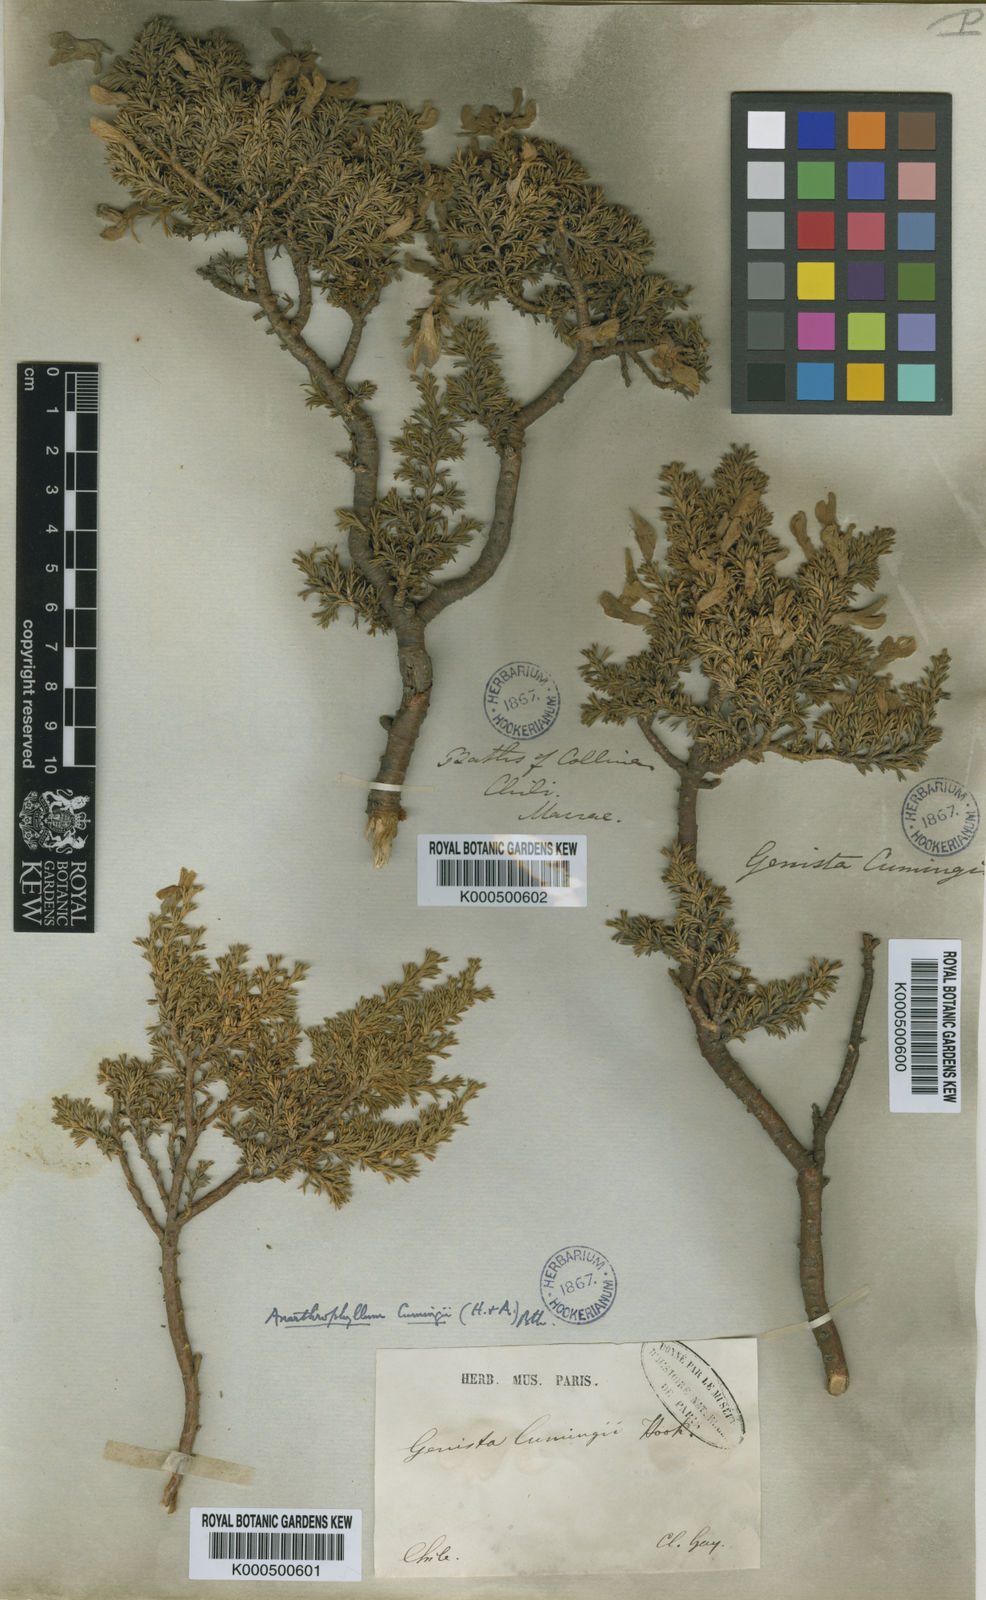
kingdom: Plantae
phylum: Tracheophyta
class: Magnoliopsida
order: Fabales
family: Fabaceae
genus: Anarthrophyllum
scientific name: Anarthrophyllum cumingii
